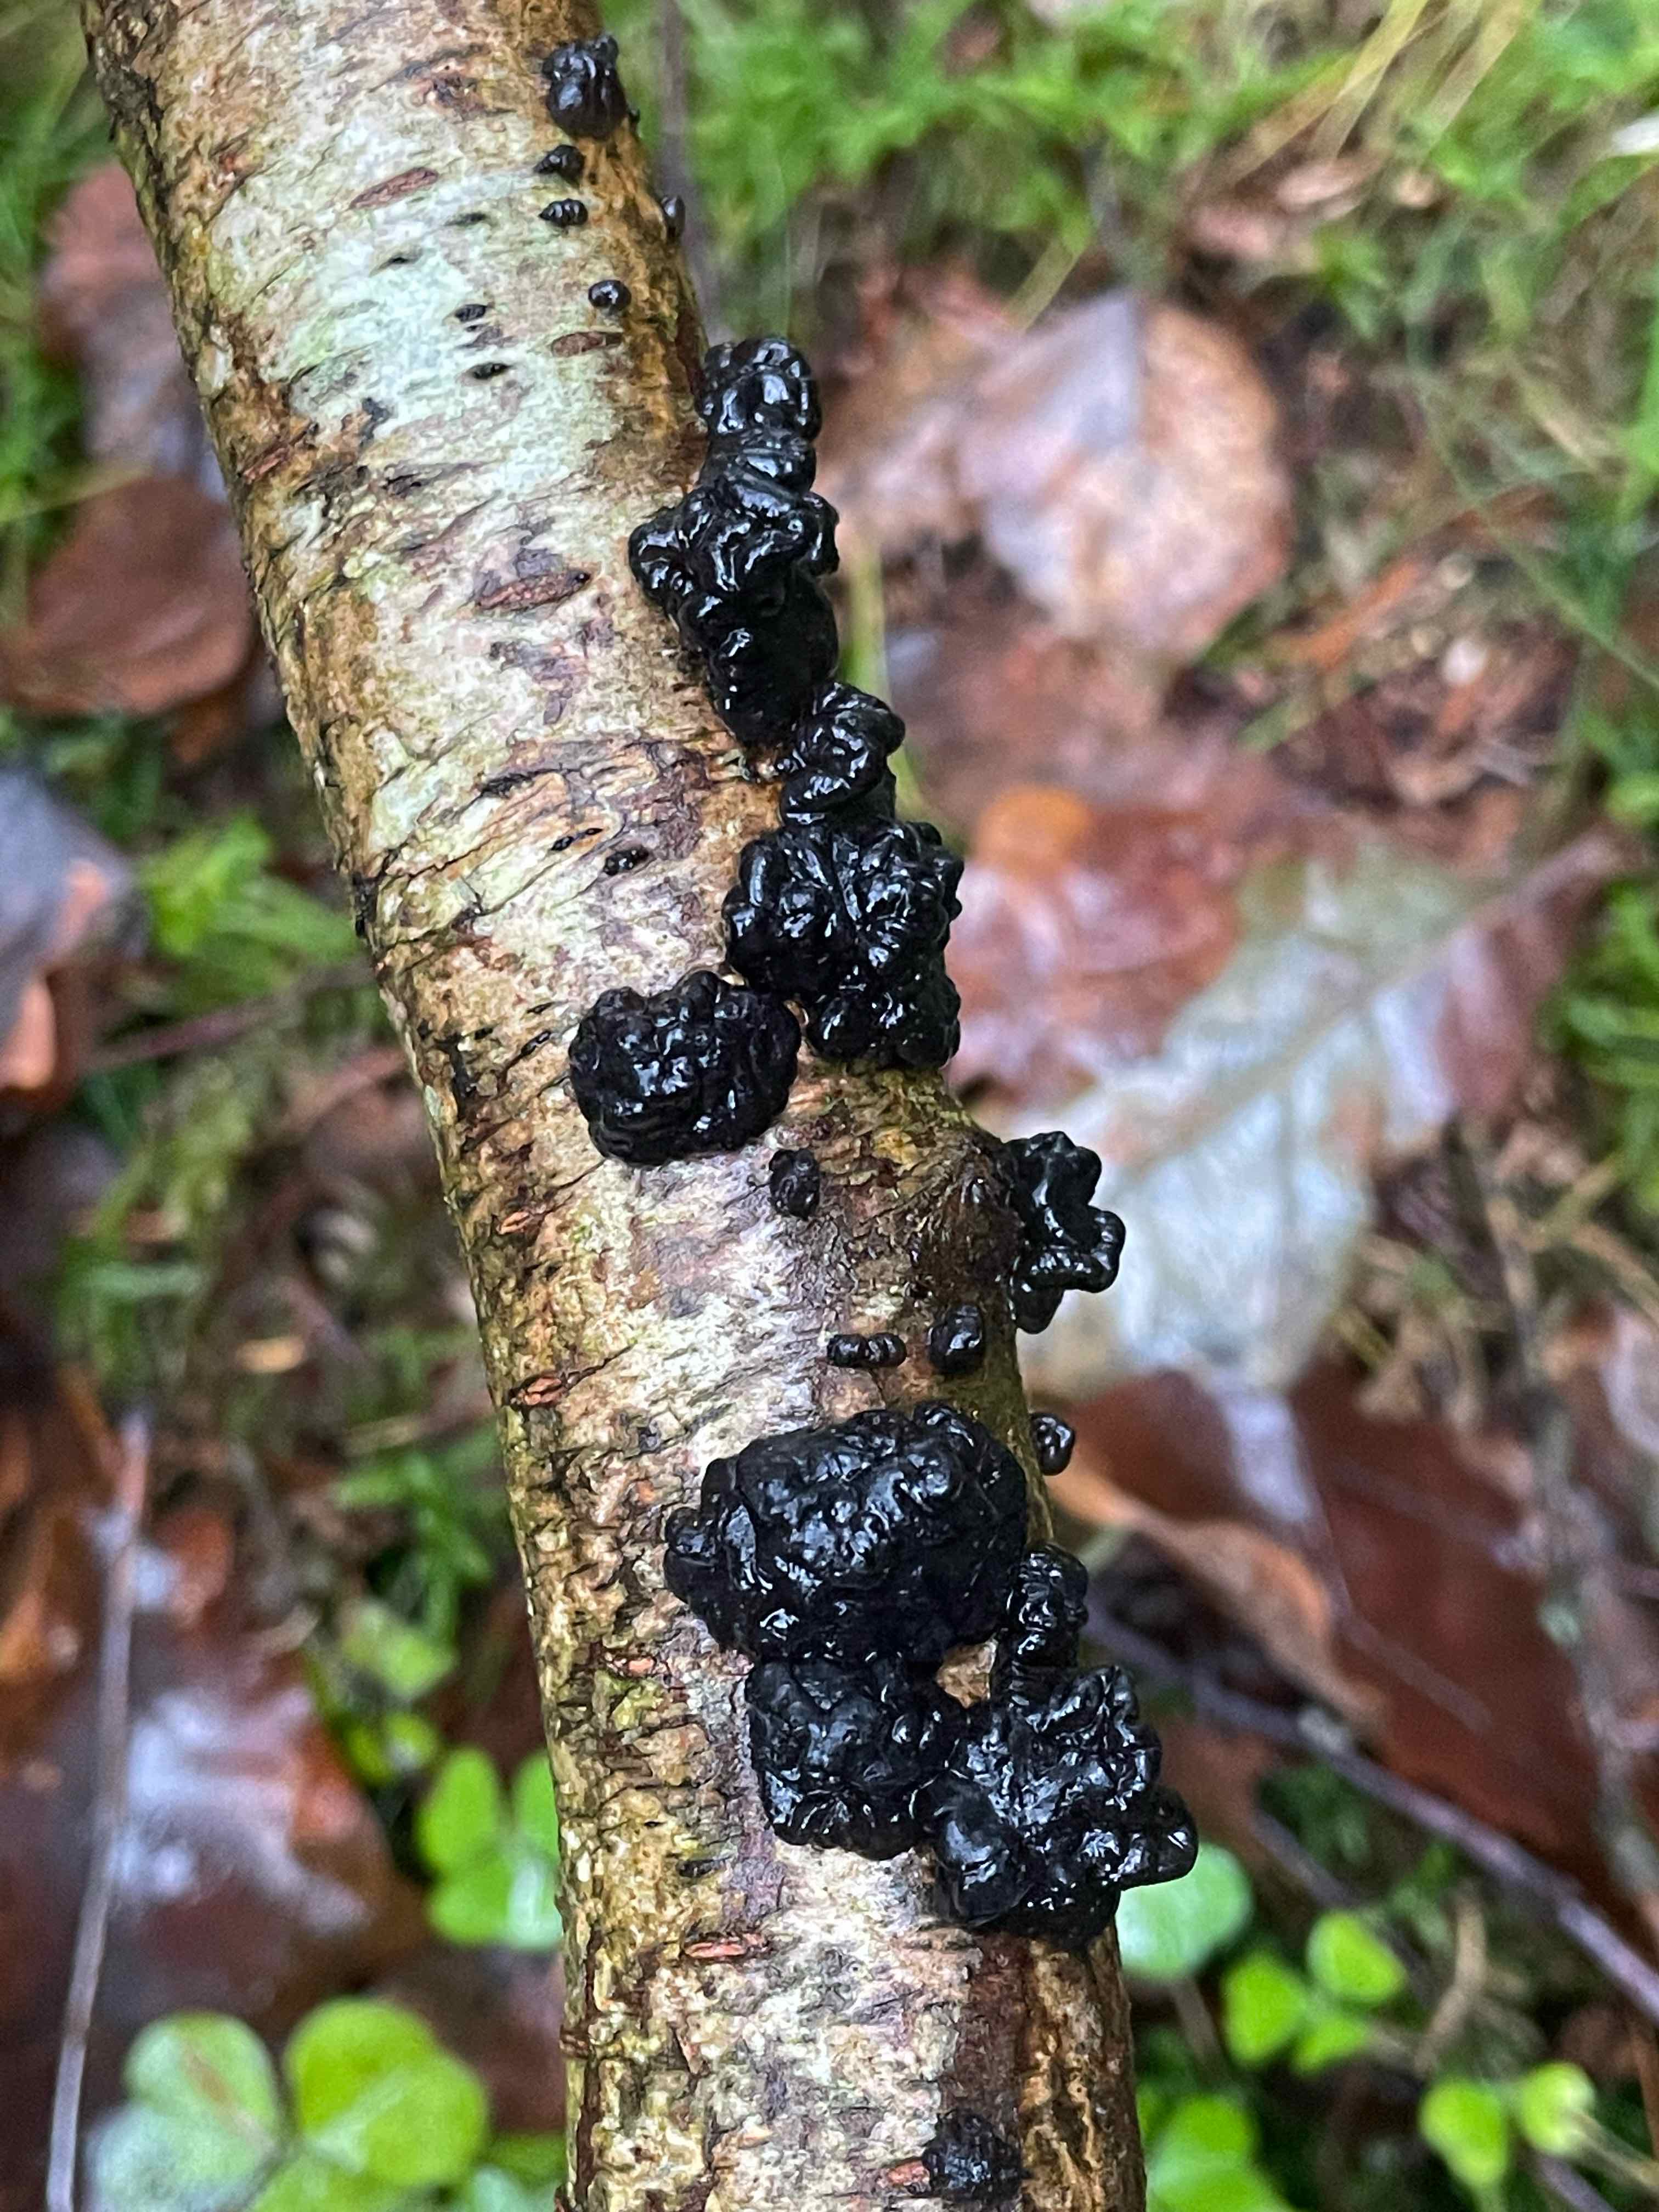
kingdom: Fungi
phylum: Basidiomycota
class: Agaricomycetes
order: Auriculariales
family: Auriculariaceae
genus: Exidia
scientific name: Exidia nigricans
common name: almindelig bævretop
